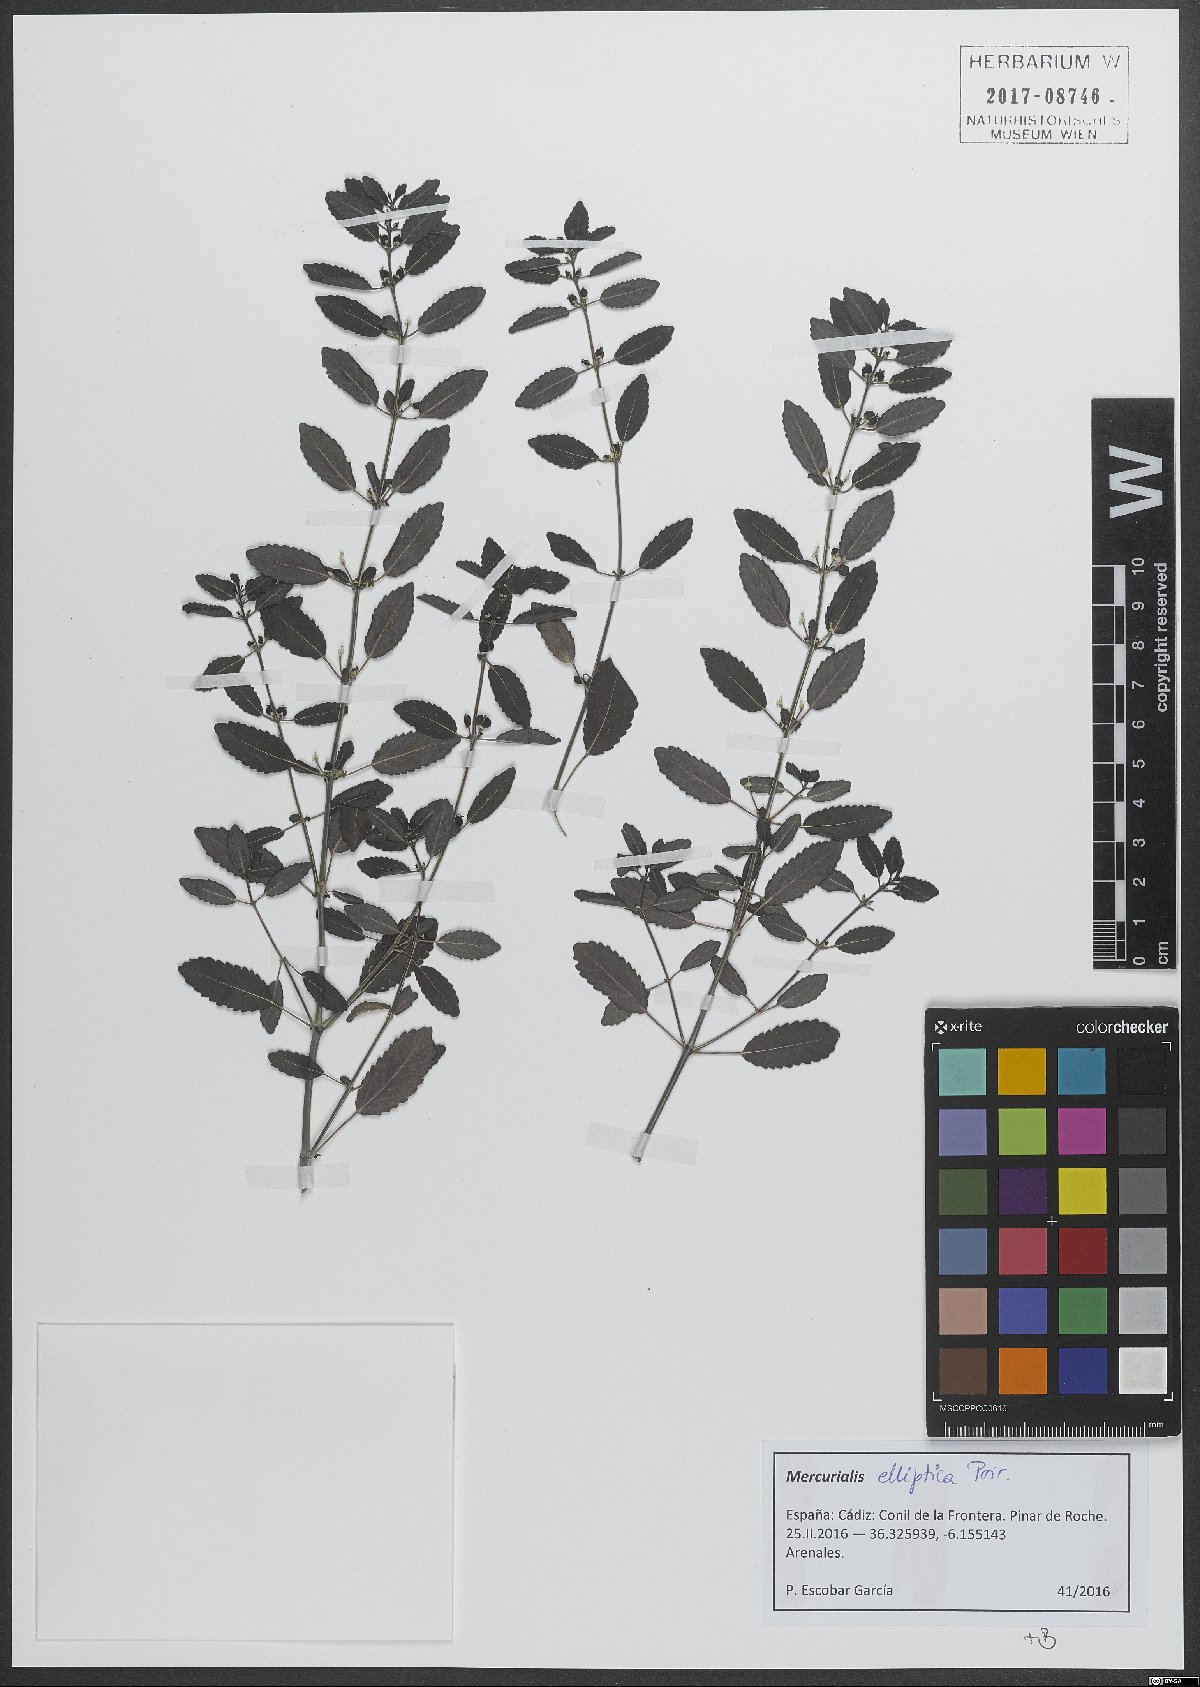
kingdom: Plantae
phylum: Tracheophyta
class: Magnoliopsida
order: Malpighiales
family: Euphorbiaceae
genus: Mercurialis
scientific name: Mercurialis elliptica
